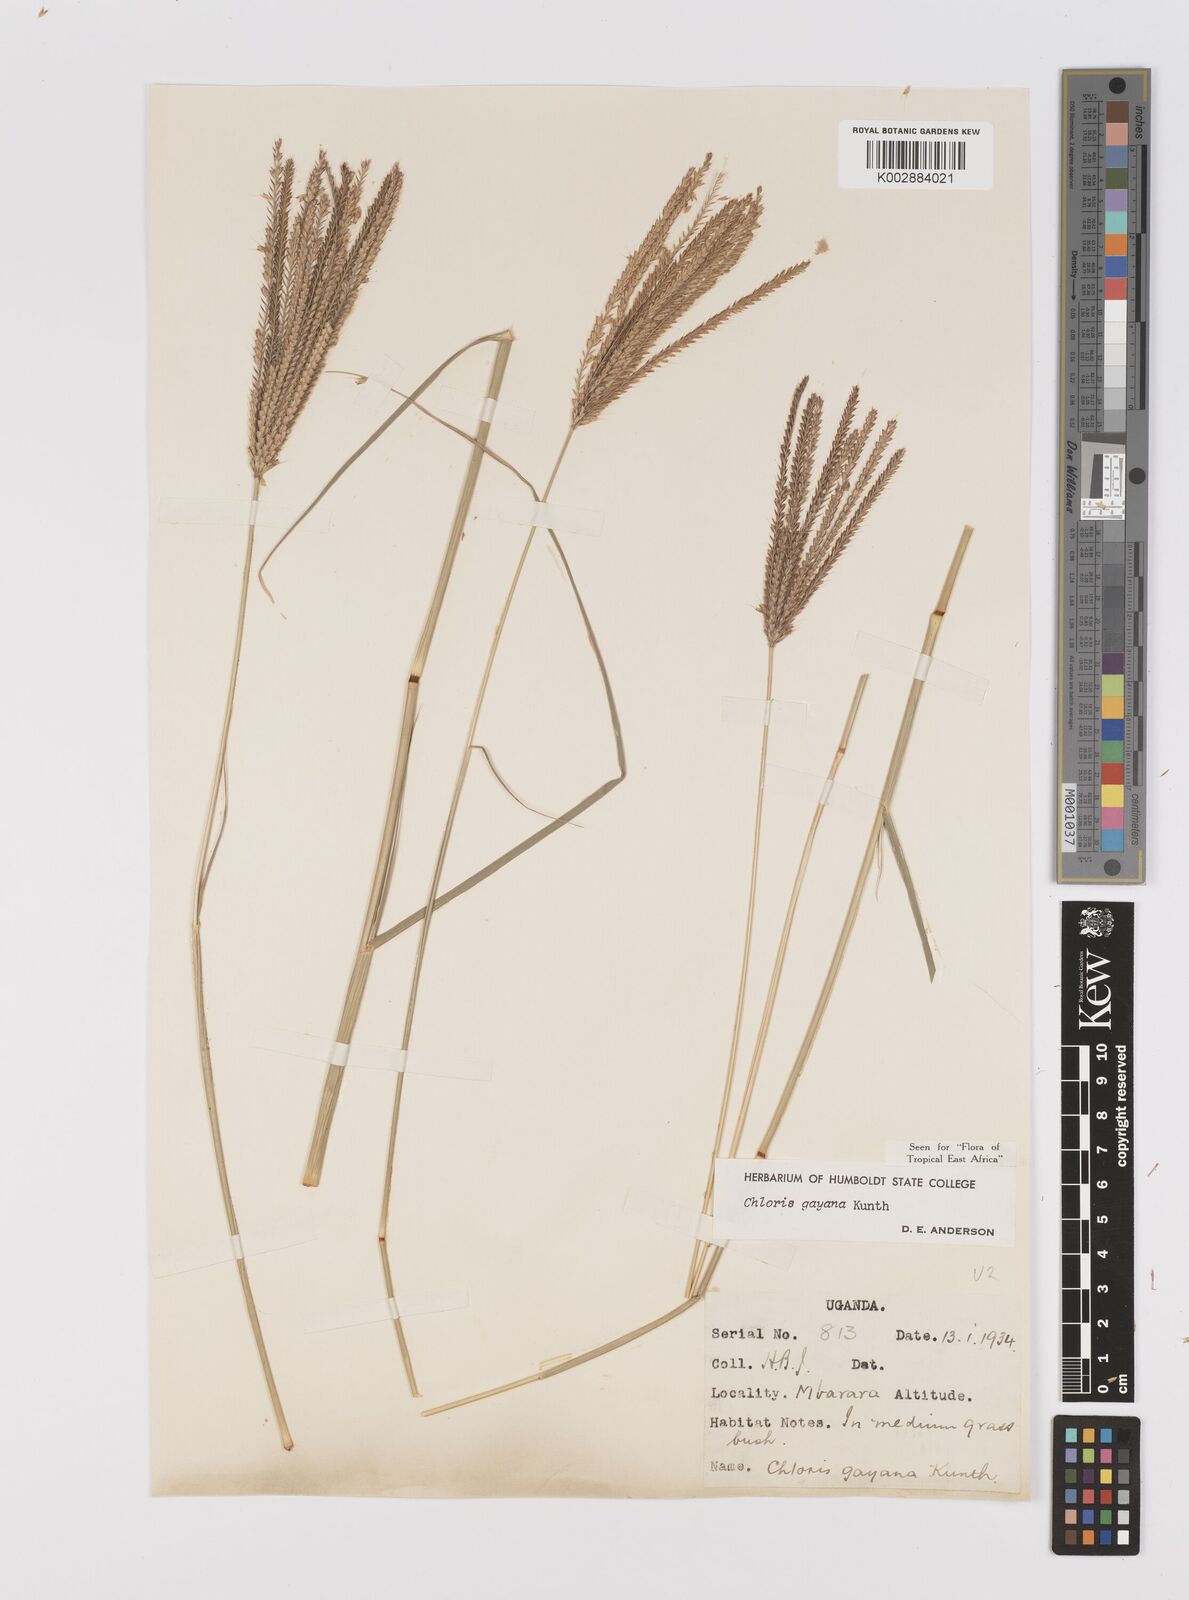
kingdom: Plantae
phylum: Tracheophyta
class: Liliopsida
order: Poales
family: Poaceae
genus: Chloris
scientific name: Chloris gayana
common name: Rhodes grass
